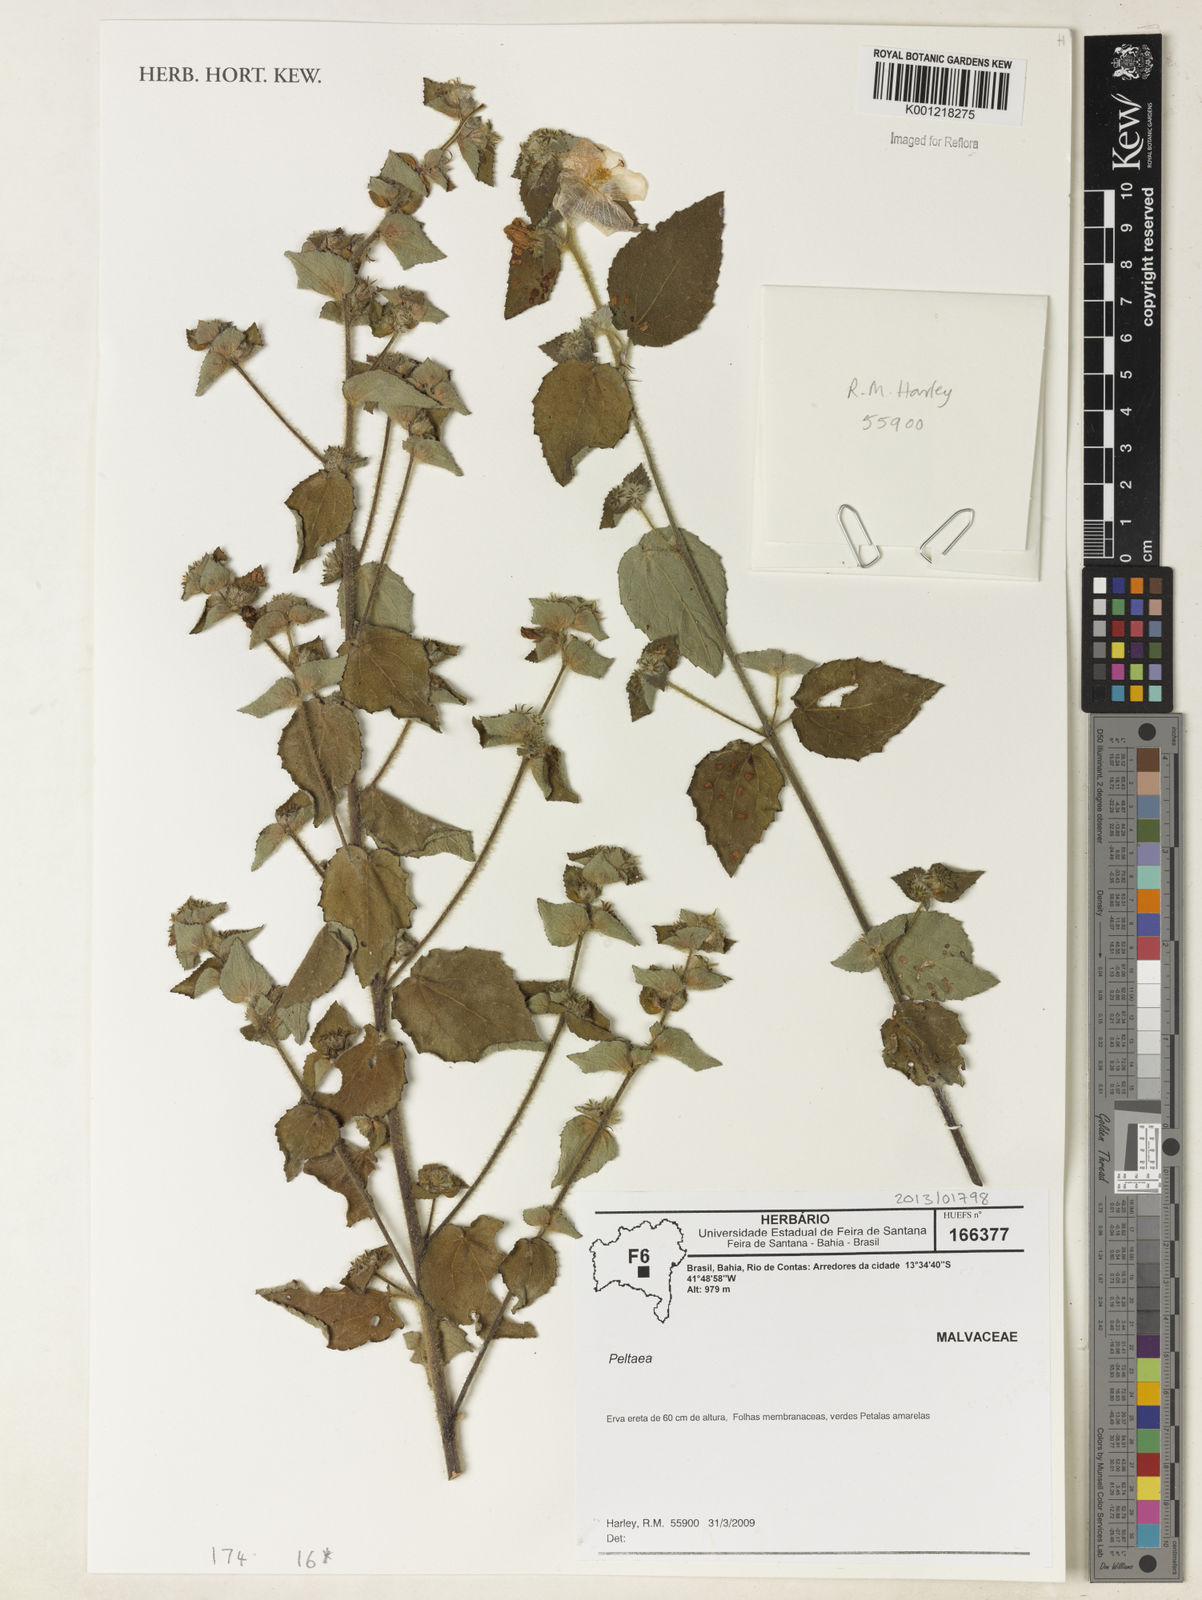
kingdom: Plantae
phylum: Tracheophyta
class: Magnoliopsida
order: Malvales
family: Malvaceae
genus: Peltaea
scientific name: Peltaea
